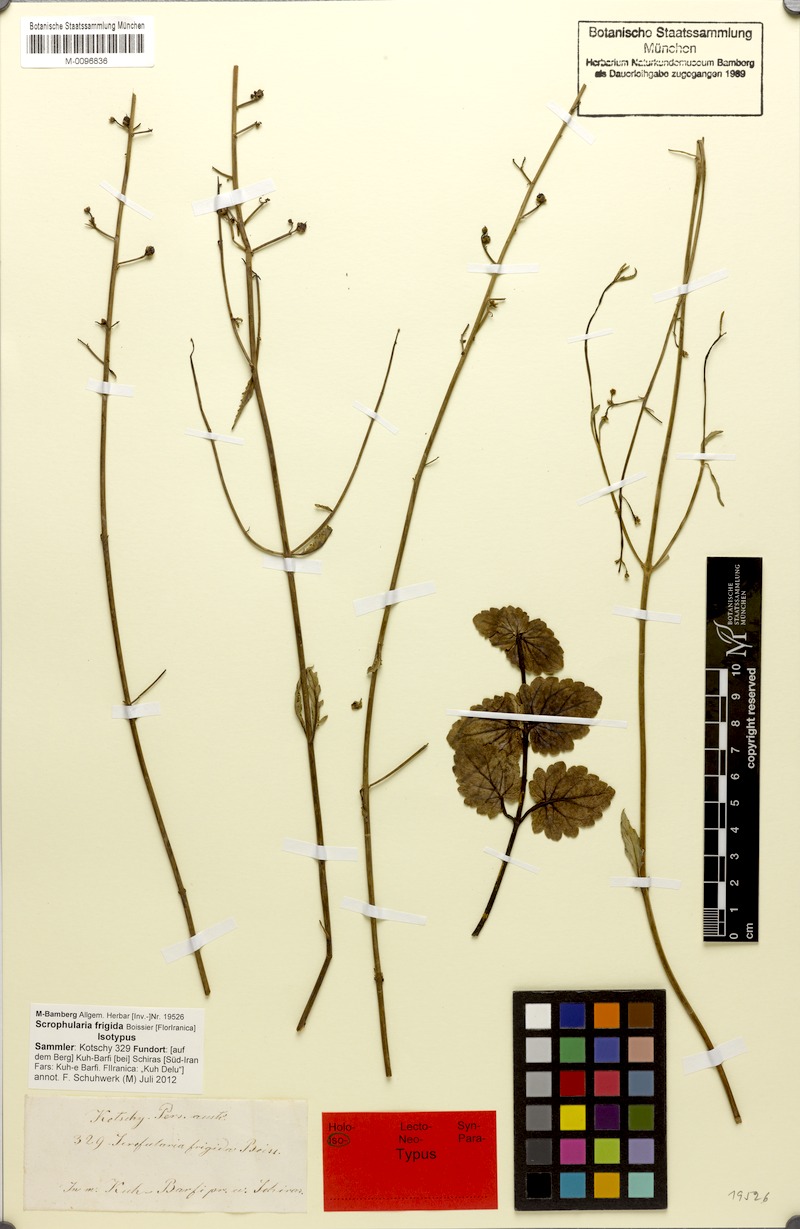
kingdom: Plantae
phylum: Tracheophyta
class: Magnoliopsida
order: Lamiales
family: Scrophulariaceae
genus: Scrophularia
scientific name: Scrophularia frigida
